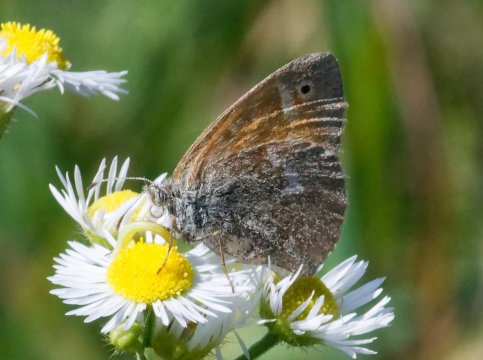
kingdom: Animalia
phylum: Arthropoda
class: Insecta
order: Lepidoptera
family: Nymphalidae
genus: Coenonympha
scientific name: Coenonympha tullia
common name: Large Heath
